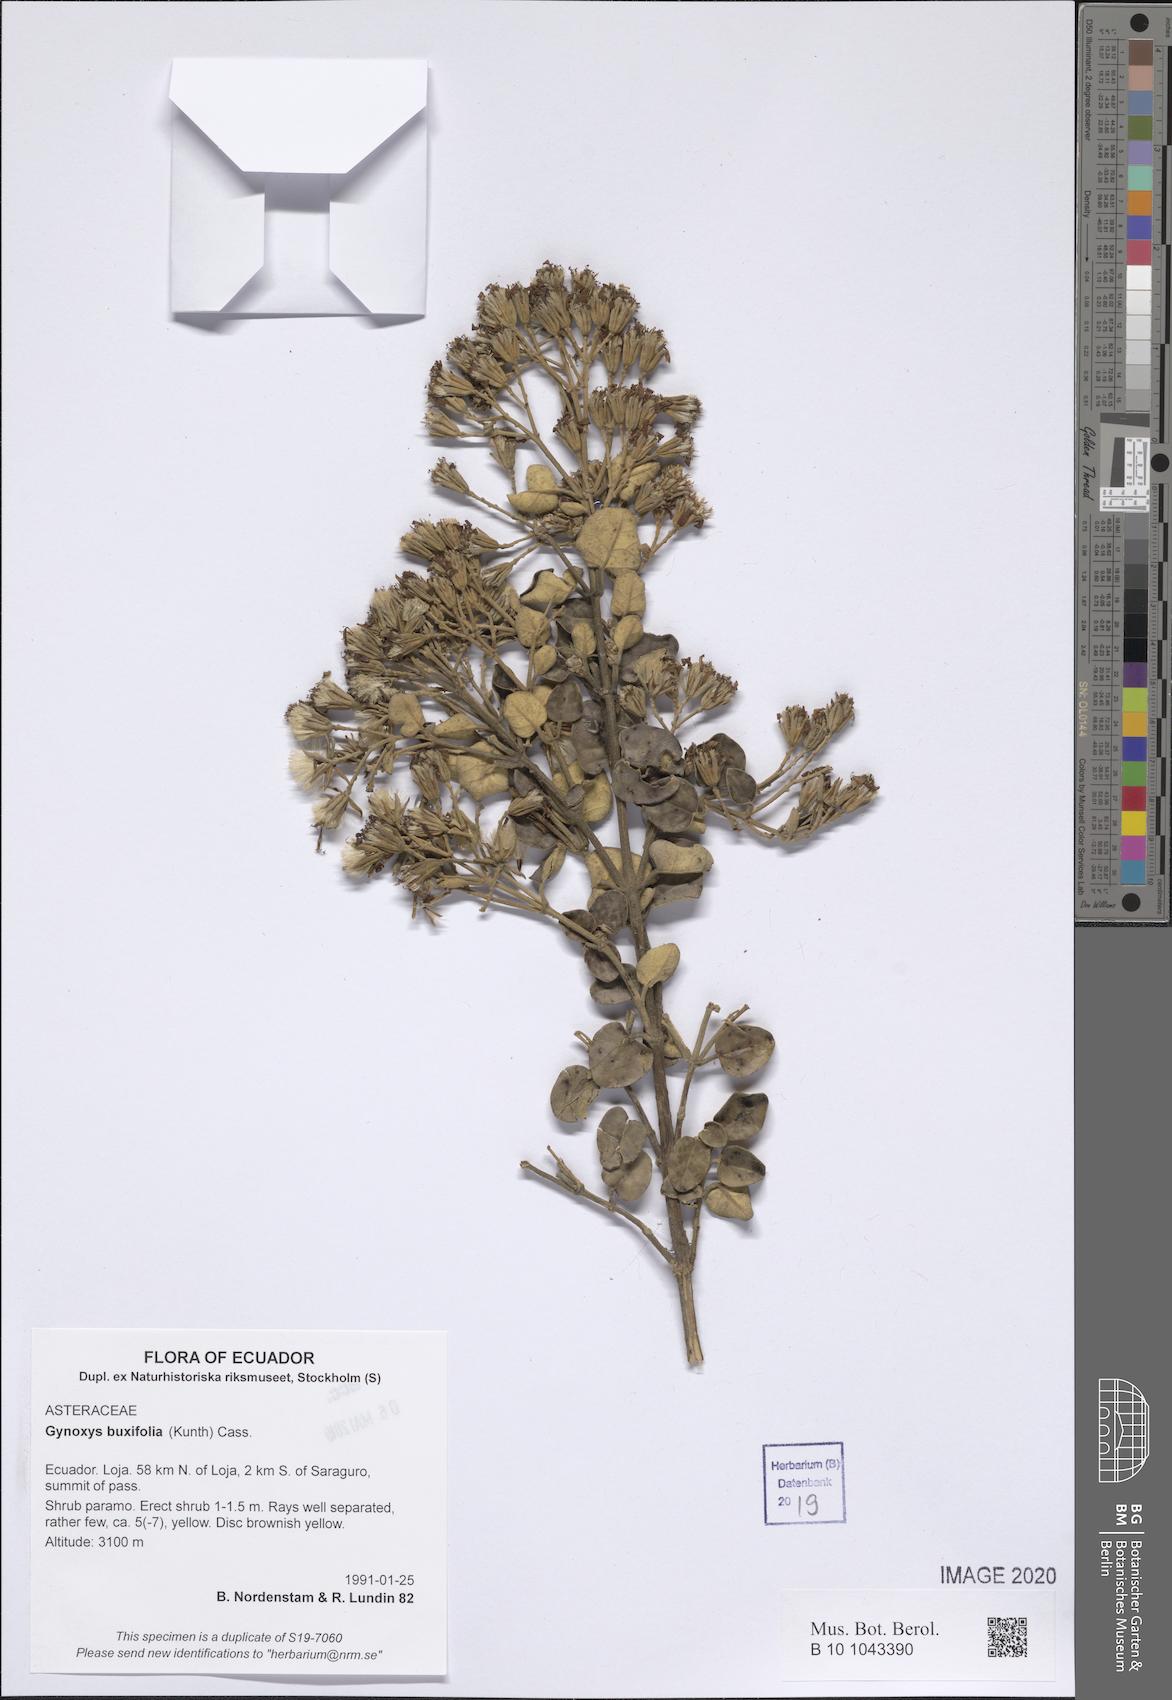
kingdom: Plantae
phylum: Tracheophyta
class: Magnoliopsida
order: Asterales
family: Asteraceae
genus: Gynoxys
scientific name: Gynoxys buxifolia
